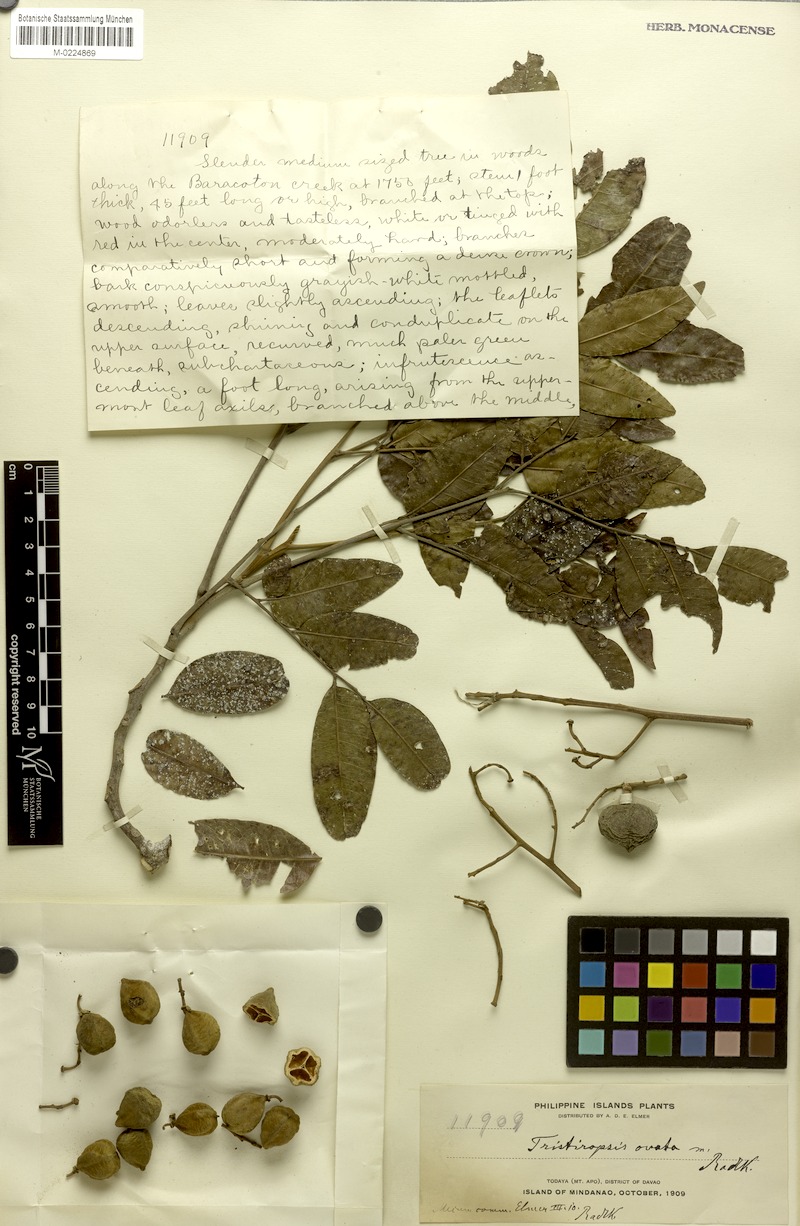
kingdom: Plantae
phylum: Tracheophyta
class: Magnoliopsida
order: Sapindales
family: Sapindaceae
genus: Tristiropsis
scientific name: Tristiropsis acutangula
